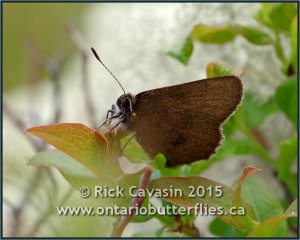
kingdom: Animalia
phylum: Arthropoda
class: Insecta
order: Lepidoptera
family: Lycaenidae
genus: Incisalia
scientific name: Incisalia irioides
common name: Brown Elfin
